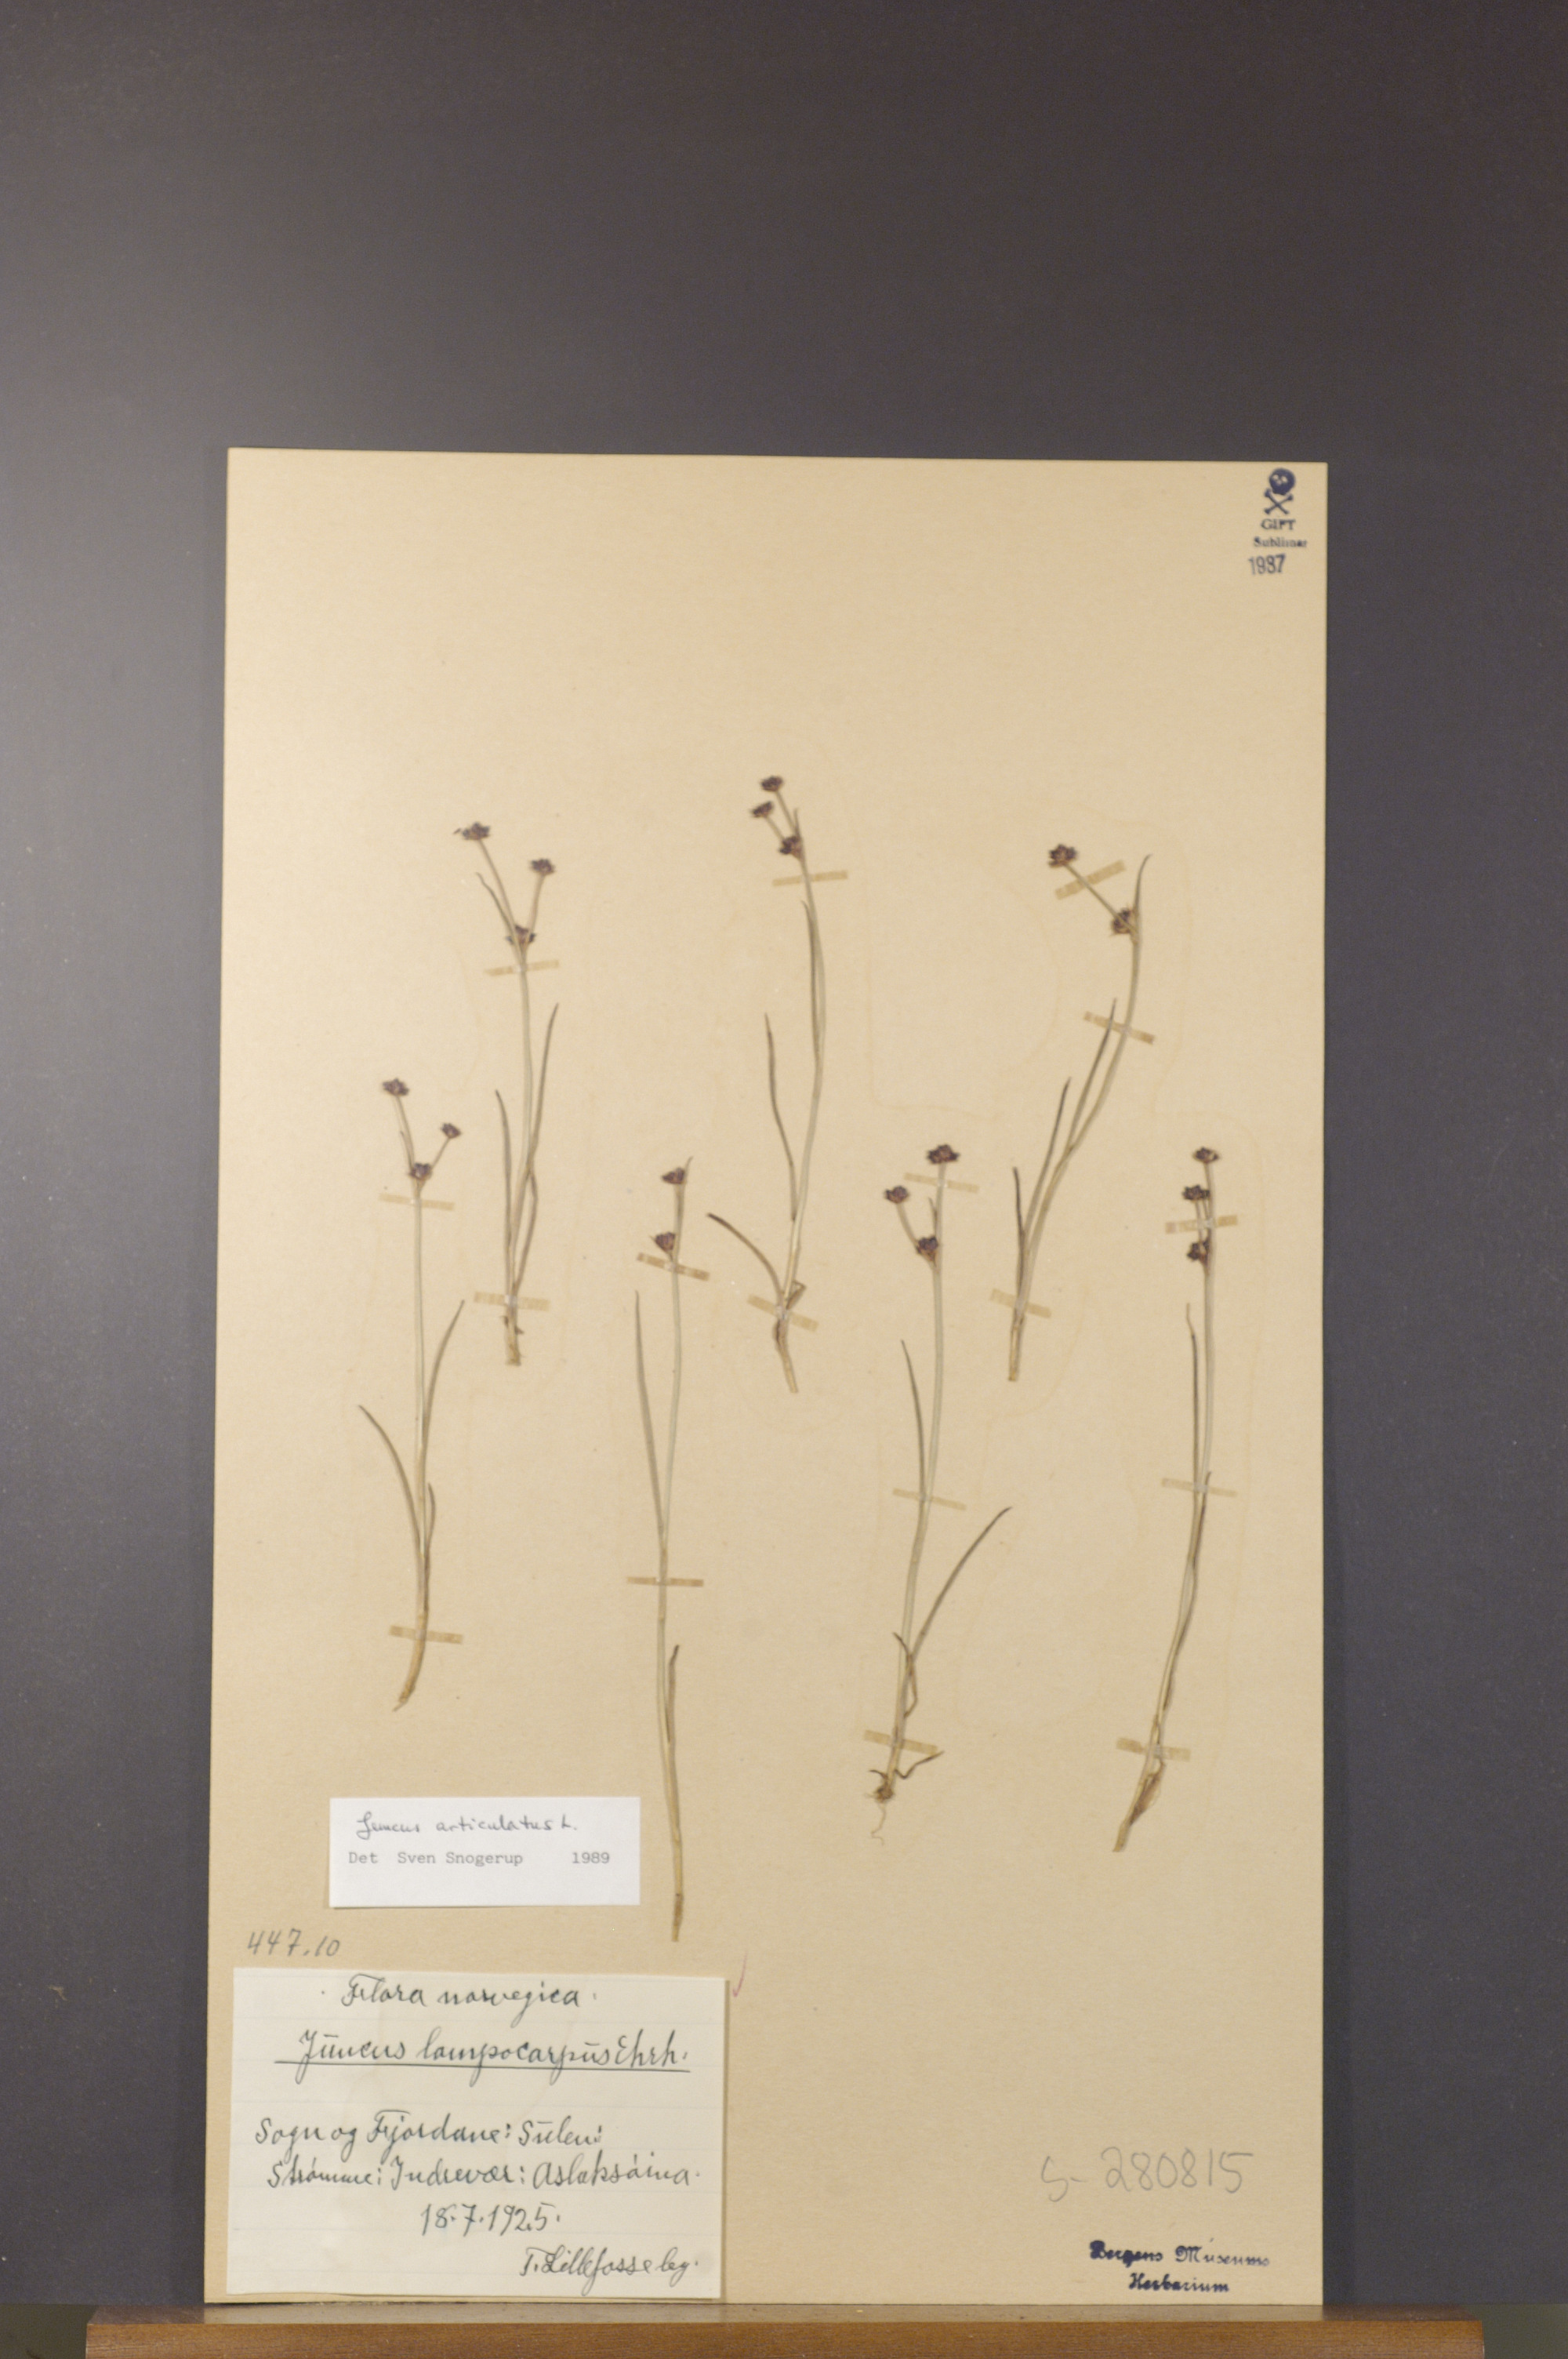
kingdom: Plantae
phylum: Tracheophyta
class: Liliopsida
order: Poales
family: Juncaceae
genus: Juncus
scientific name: Juncus articulatus
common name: Jointed rush
